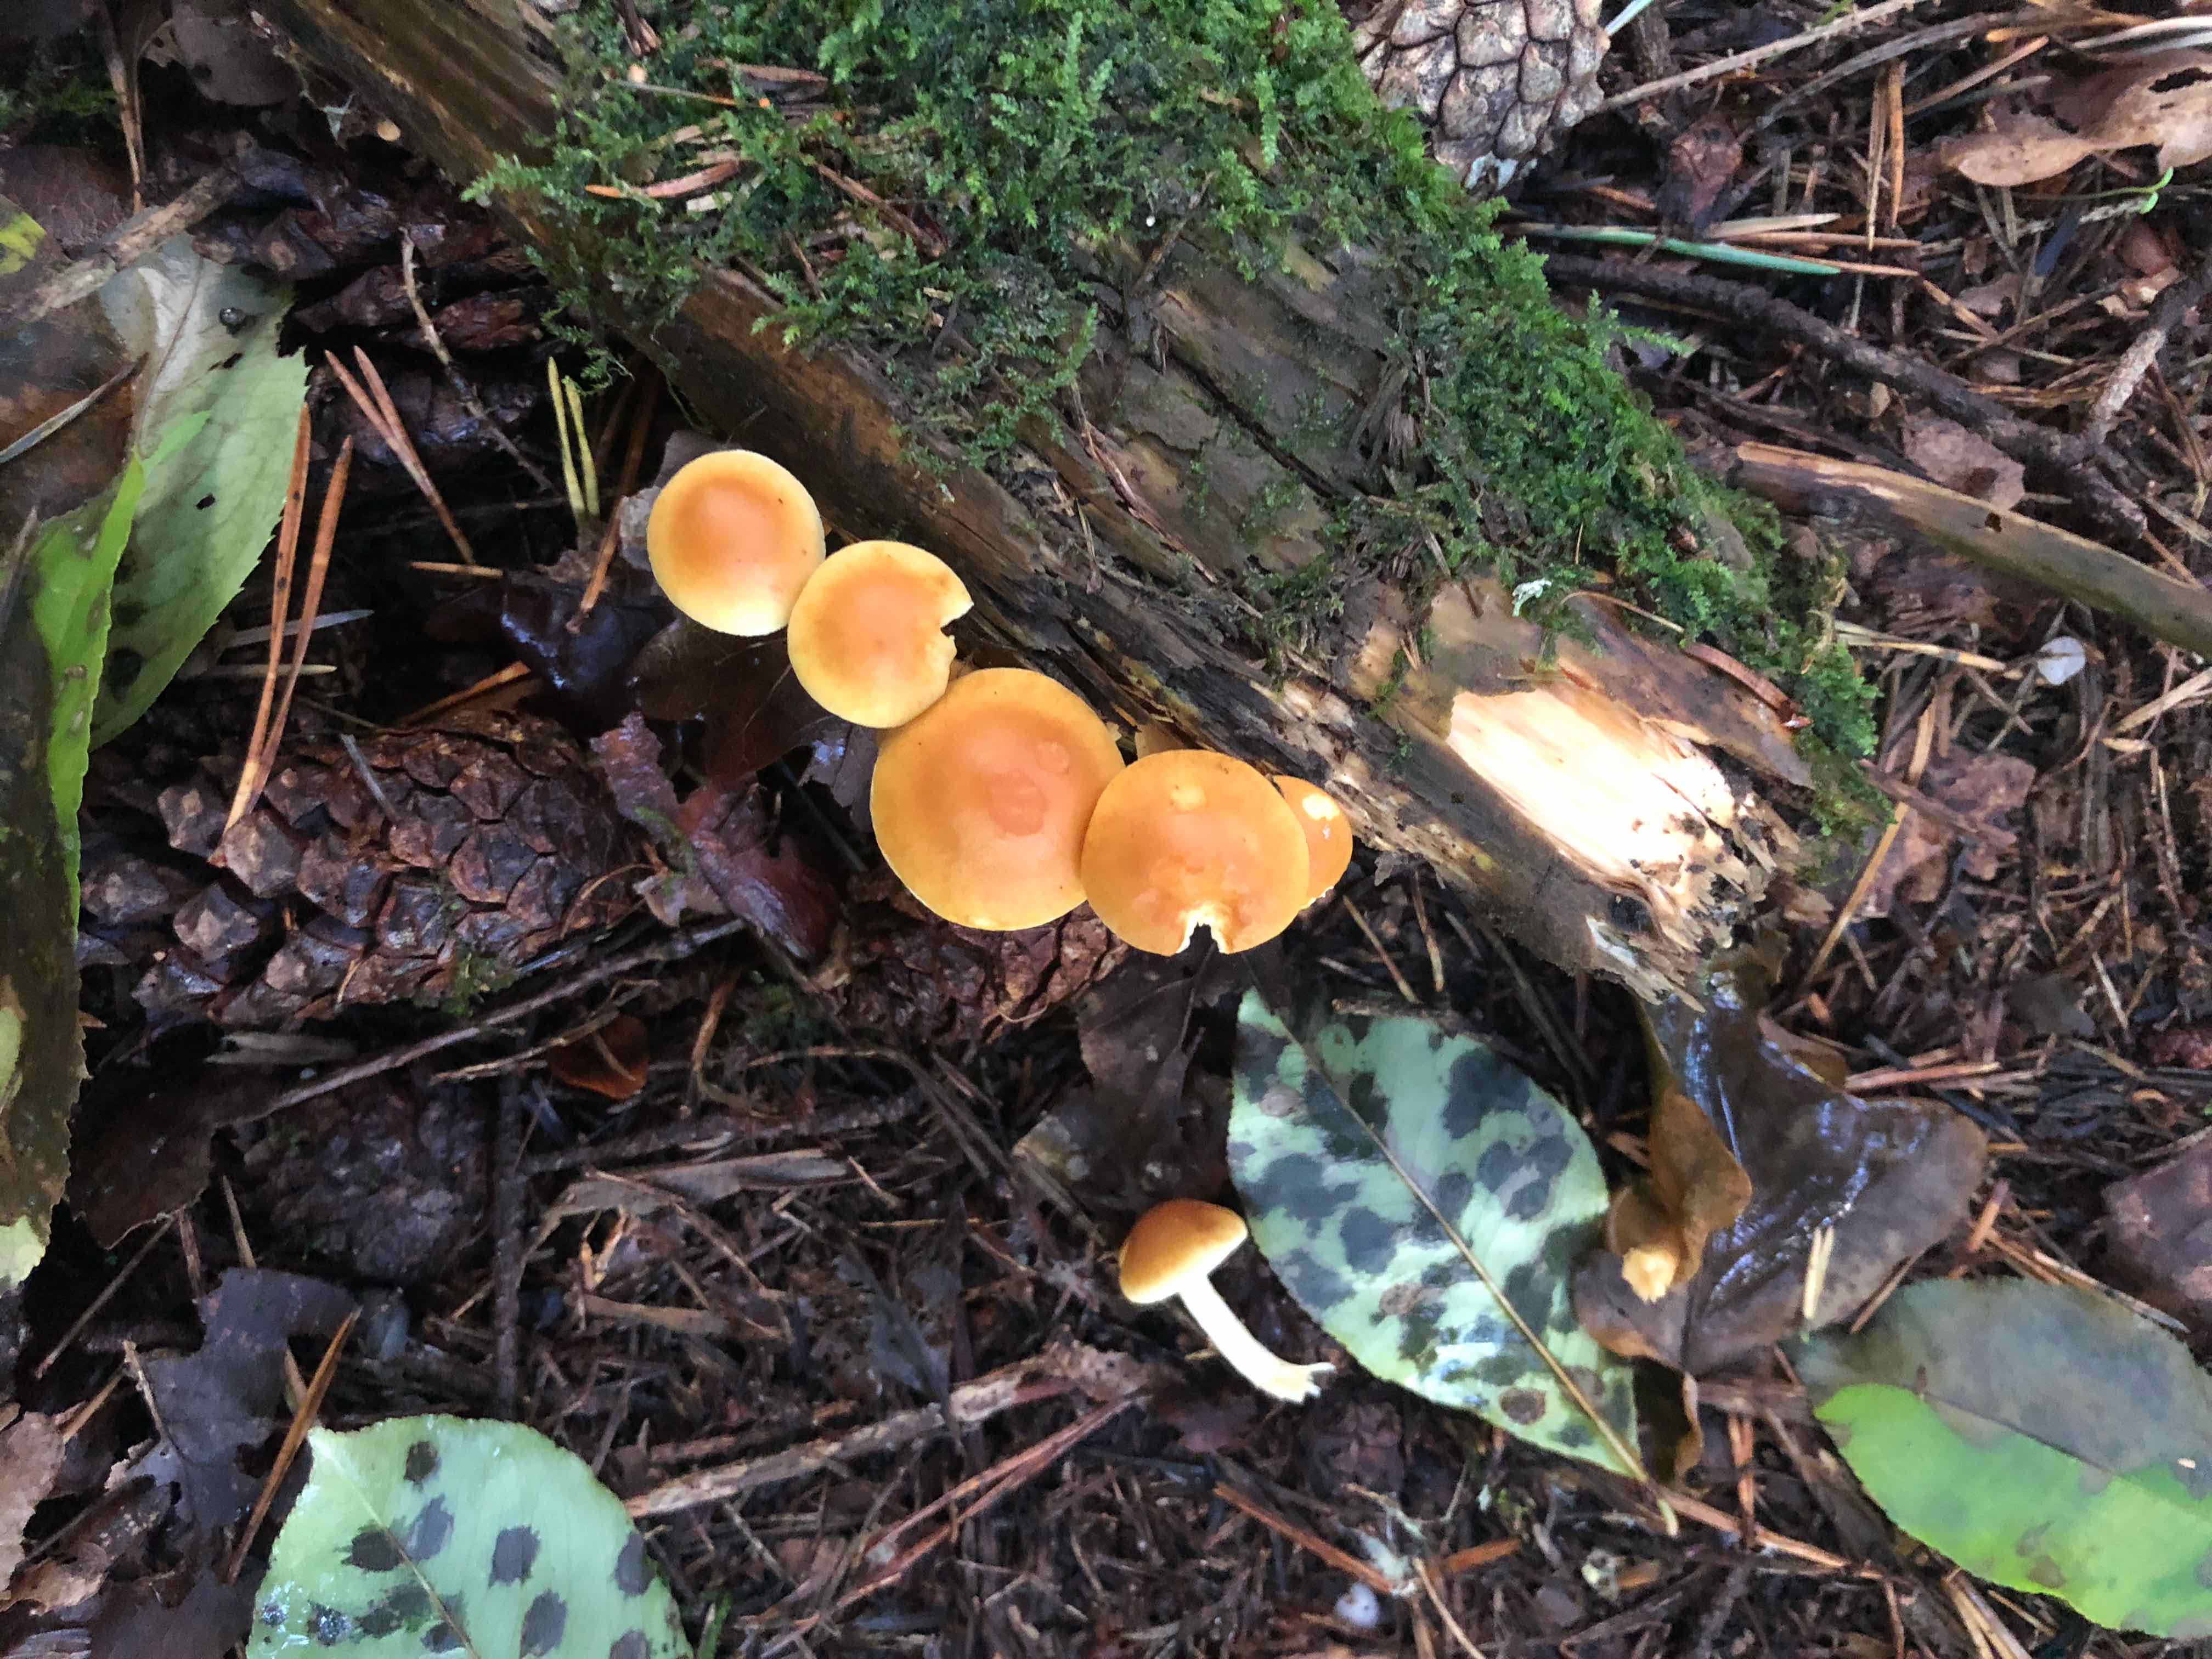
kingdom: Fungi
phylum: Basidiomycota
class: Agaricomycetes
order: Agaricales
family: Hymenogastraceae
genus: Gymnopilus
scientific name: Gymnopilus penetrans
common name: plettet flammehat
